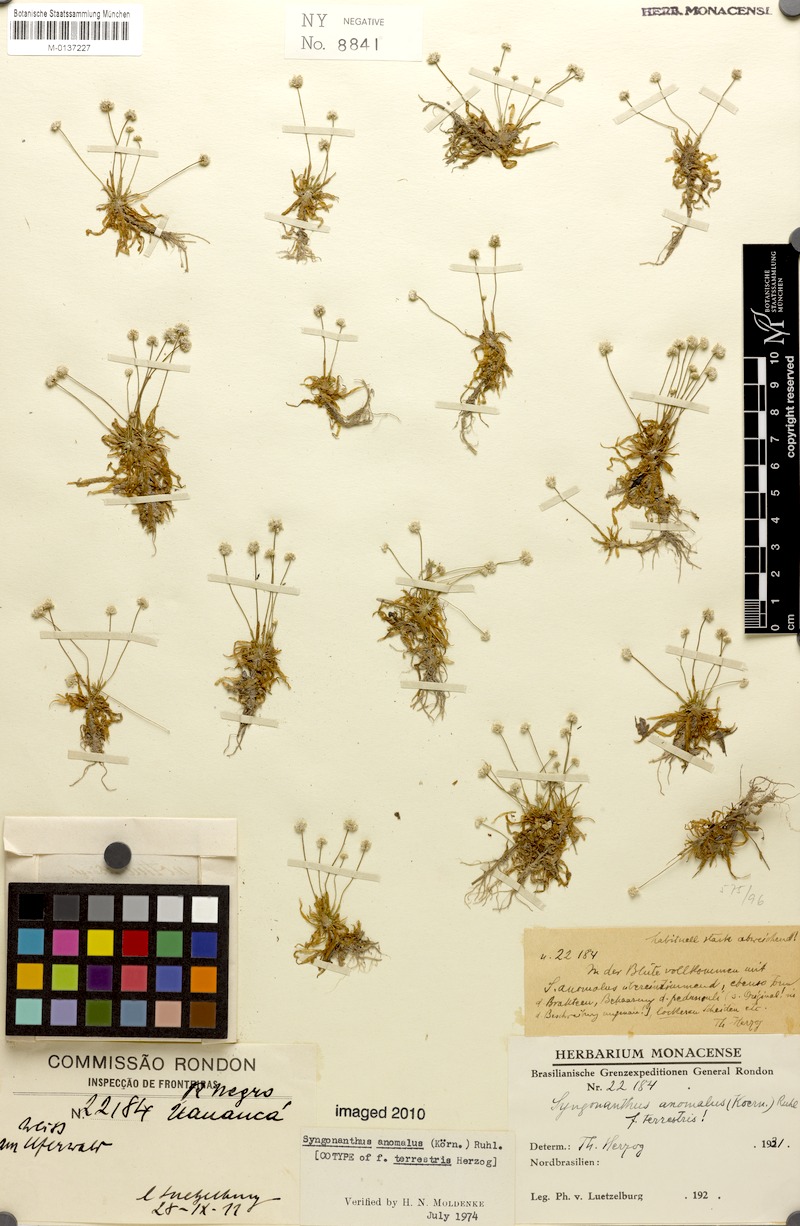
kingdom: Plantae
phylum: Tracheophyta
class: Liliopsida
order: Poales
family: Eriocaulaceae
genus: Syngonanthus
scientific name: Syngonanthus anomalus
